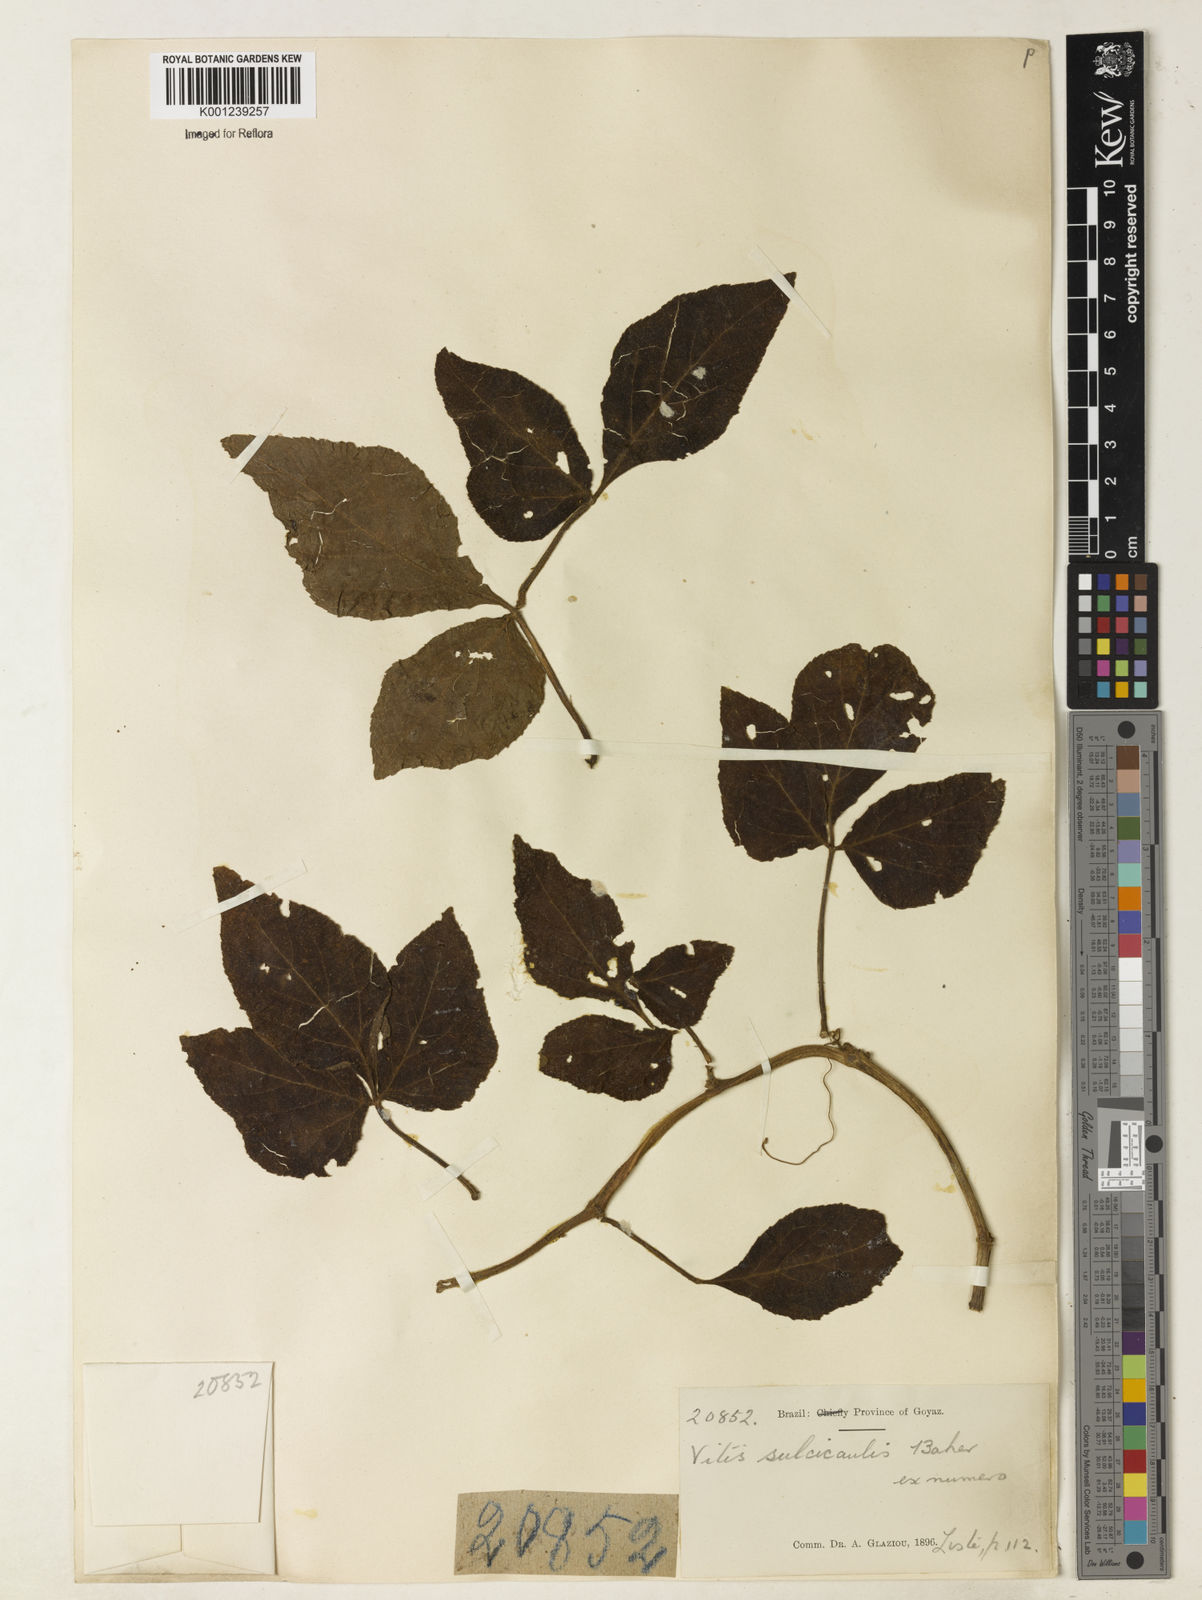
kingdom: Plantae
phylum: Tracheophyta
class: Magnoliopsida
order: Vitales
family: Vitaceae
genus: Cissus
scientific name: Cissus sulcicaulis
